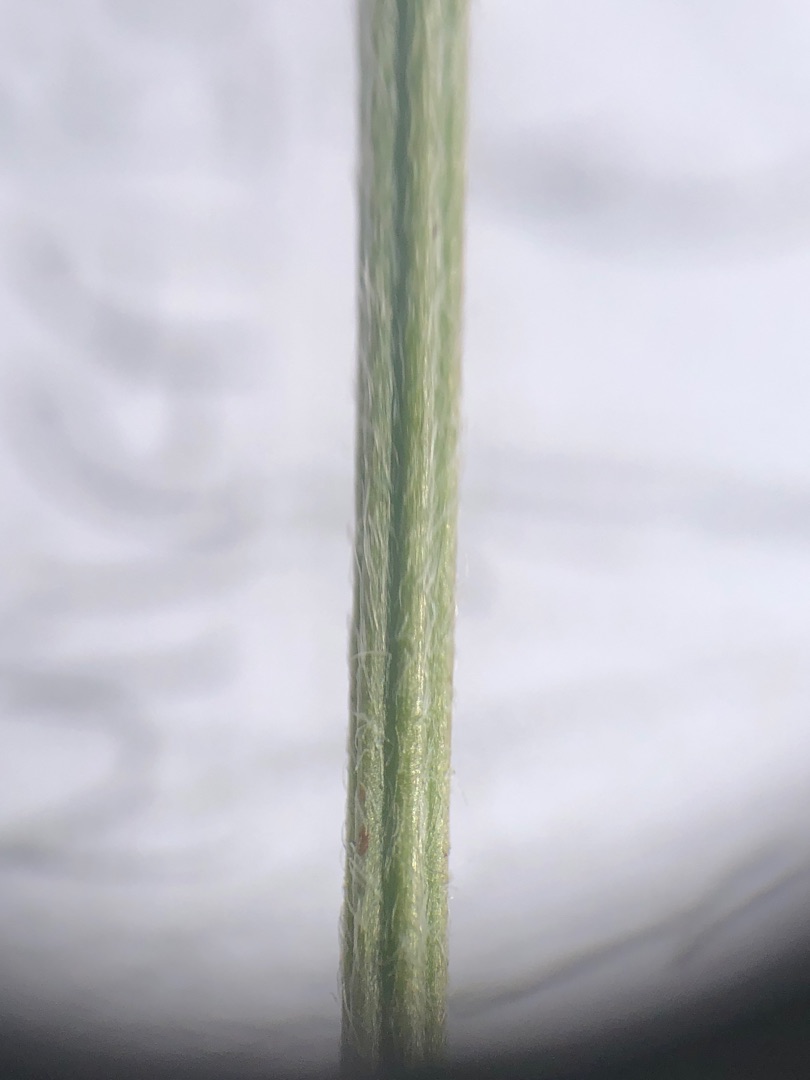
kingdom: Plantae
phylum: Tracheophyta
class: Magnoliopsida
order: Lamiales
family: Plantaginaceae
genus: Plantago
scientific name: Plantago lanceolata
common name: Lancet-vejbred
